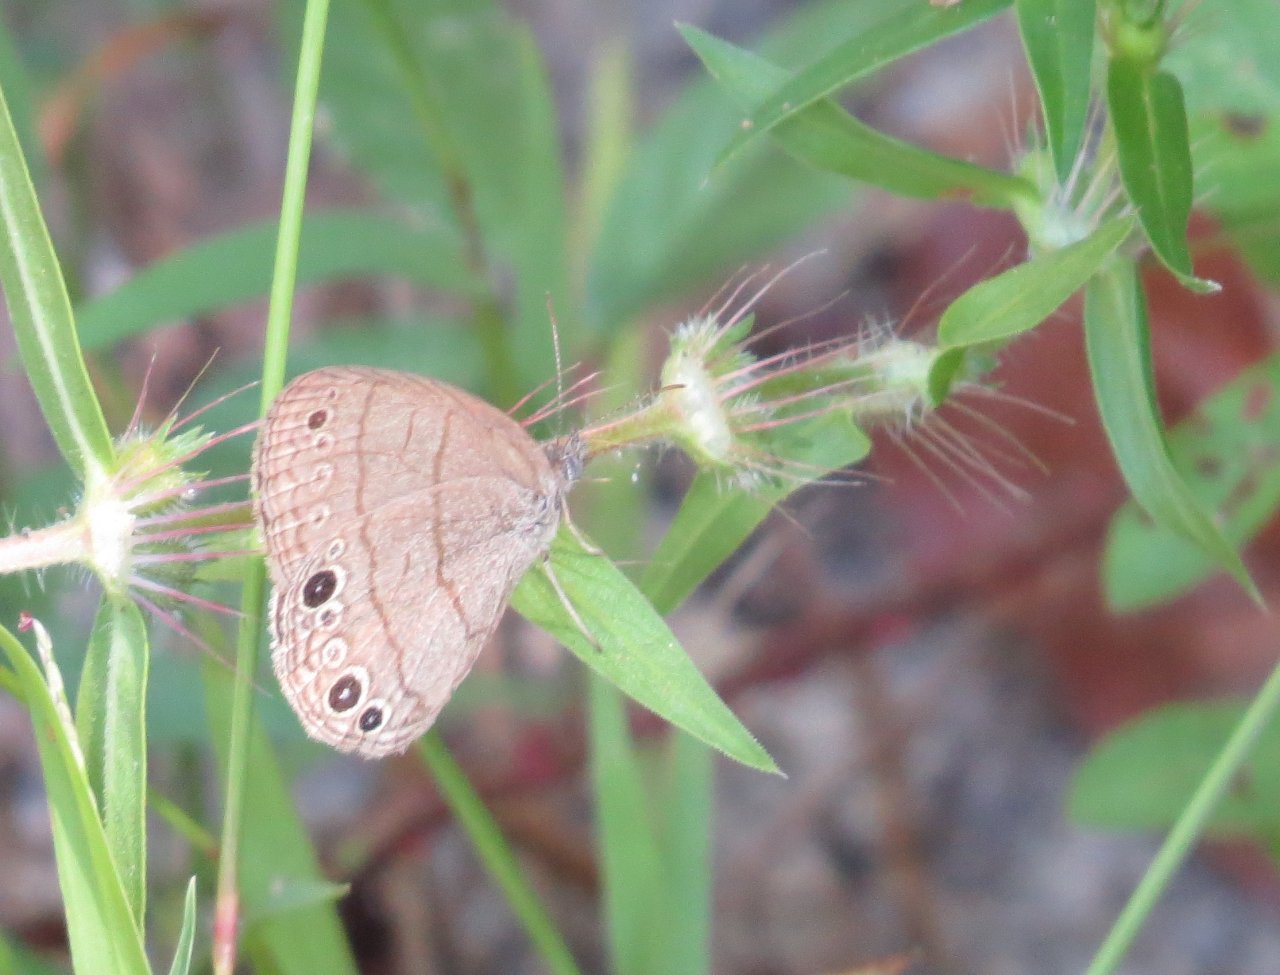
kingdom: Animalia
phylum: Arthropoda
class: Insecta
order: Lepidoptera
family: Nymphalidae
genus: Hermeuptychia
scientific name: Hermeuptychia hermes
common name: Carolina Satyr
